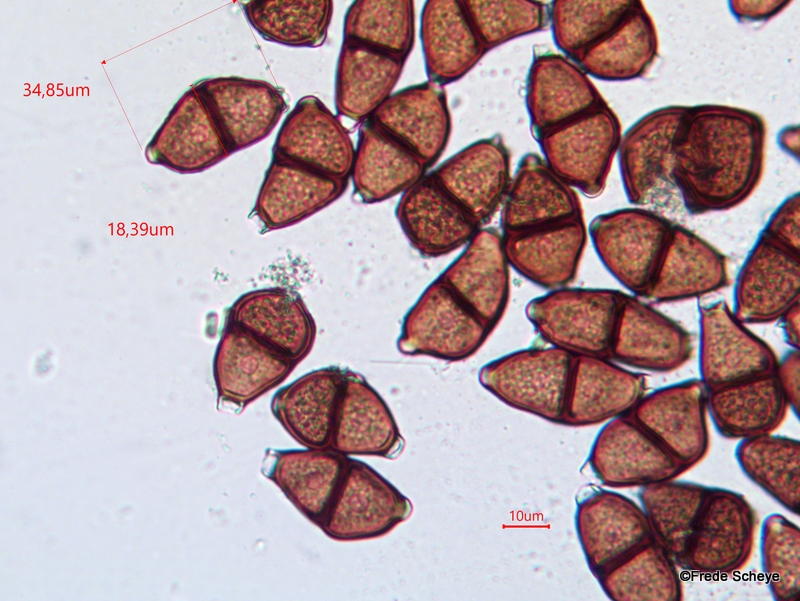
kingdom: Fungi
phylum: Basidiomycota
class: Pucciniomycetes
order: Pucciniales
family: Pucciniaceae
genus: Puccinia
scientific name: Puccinia
